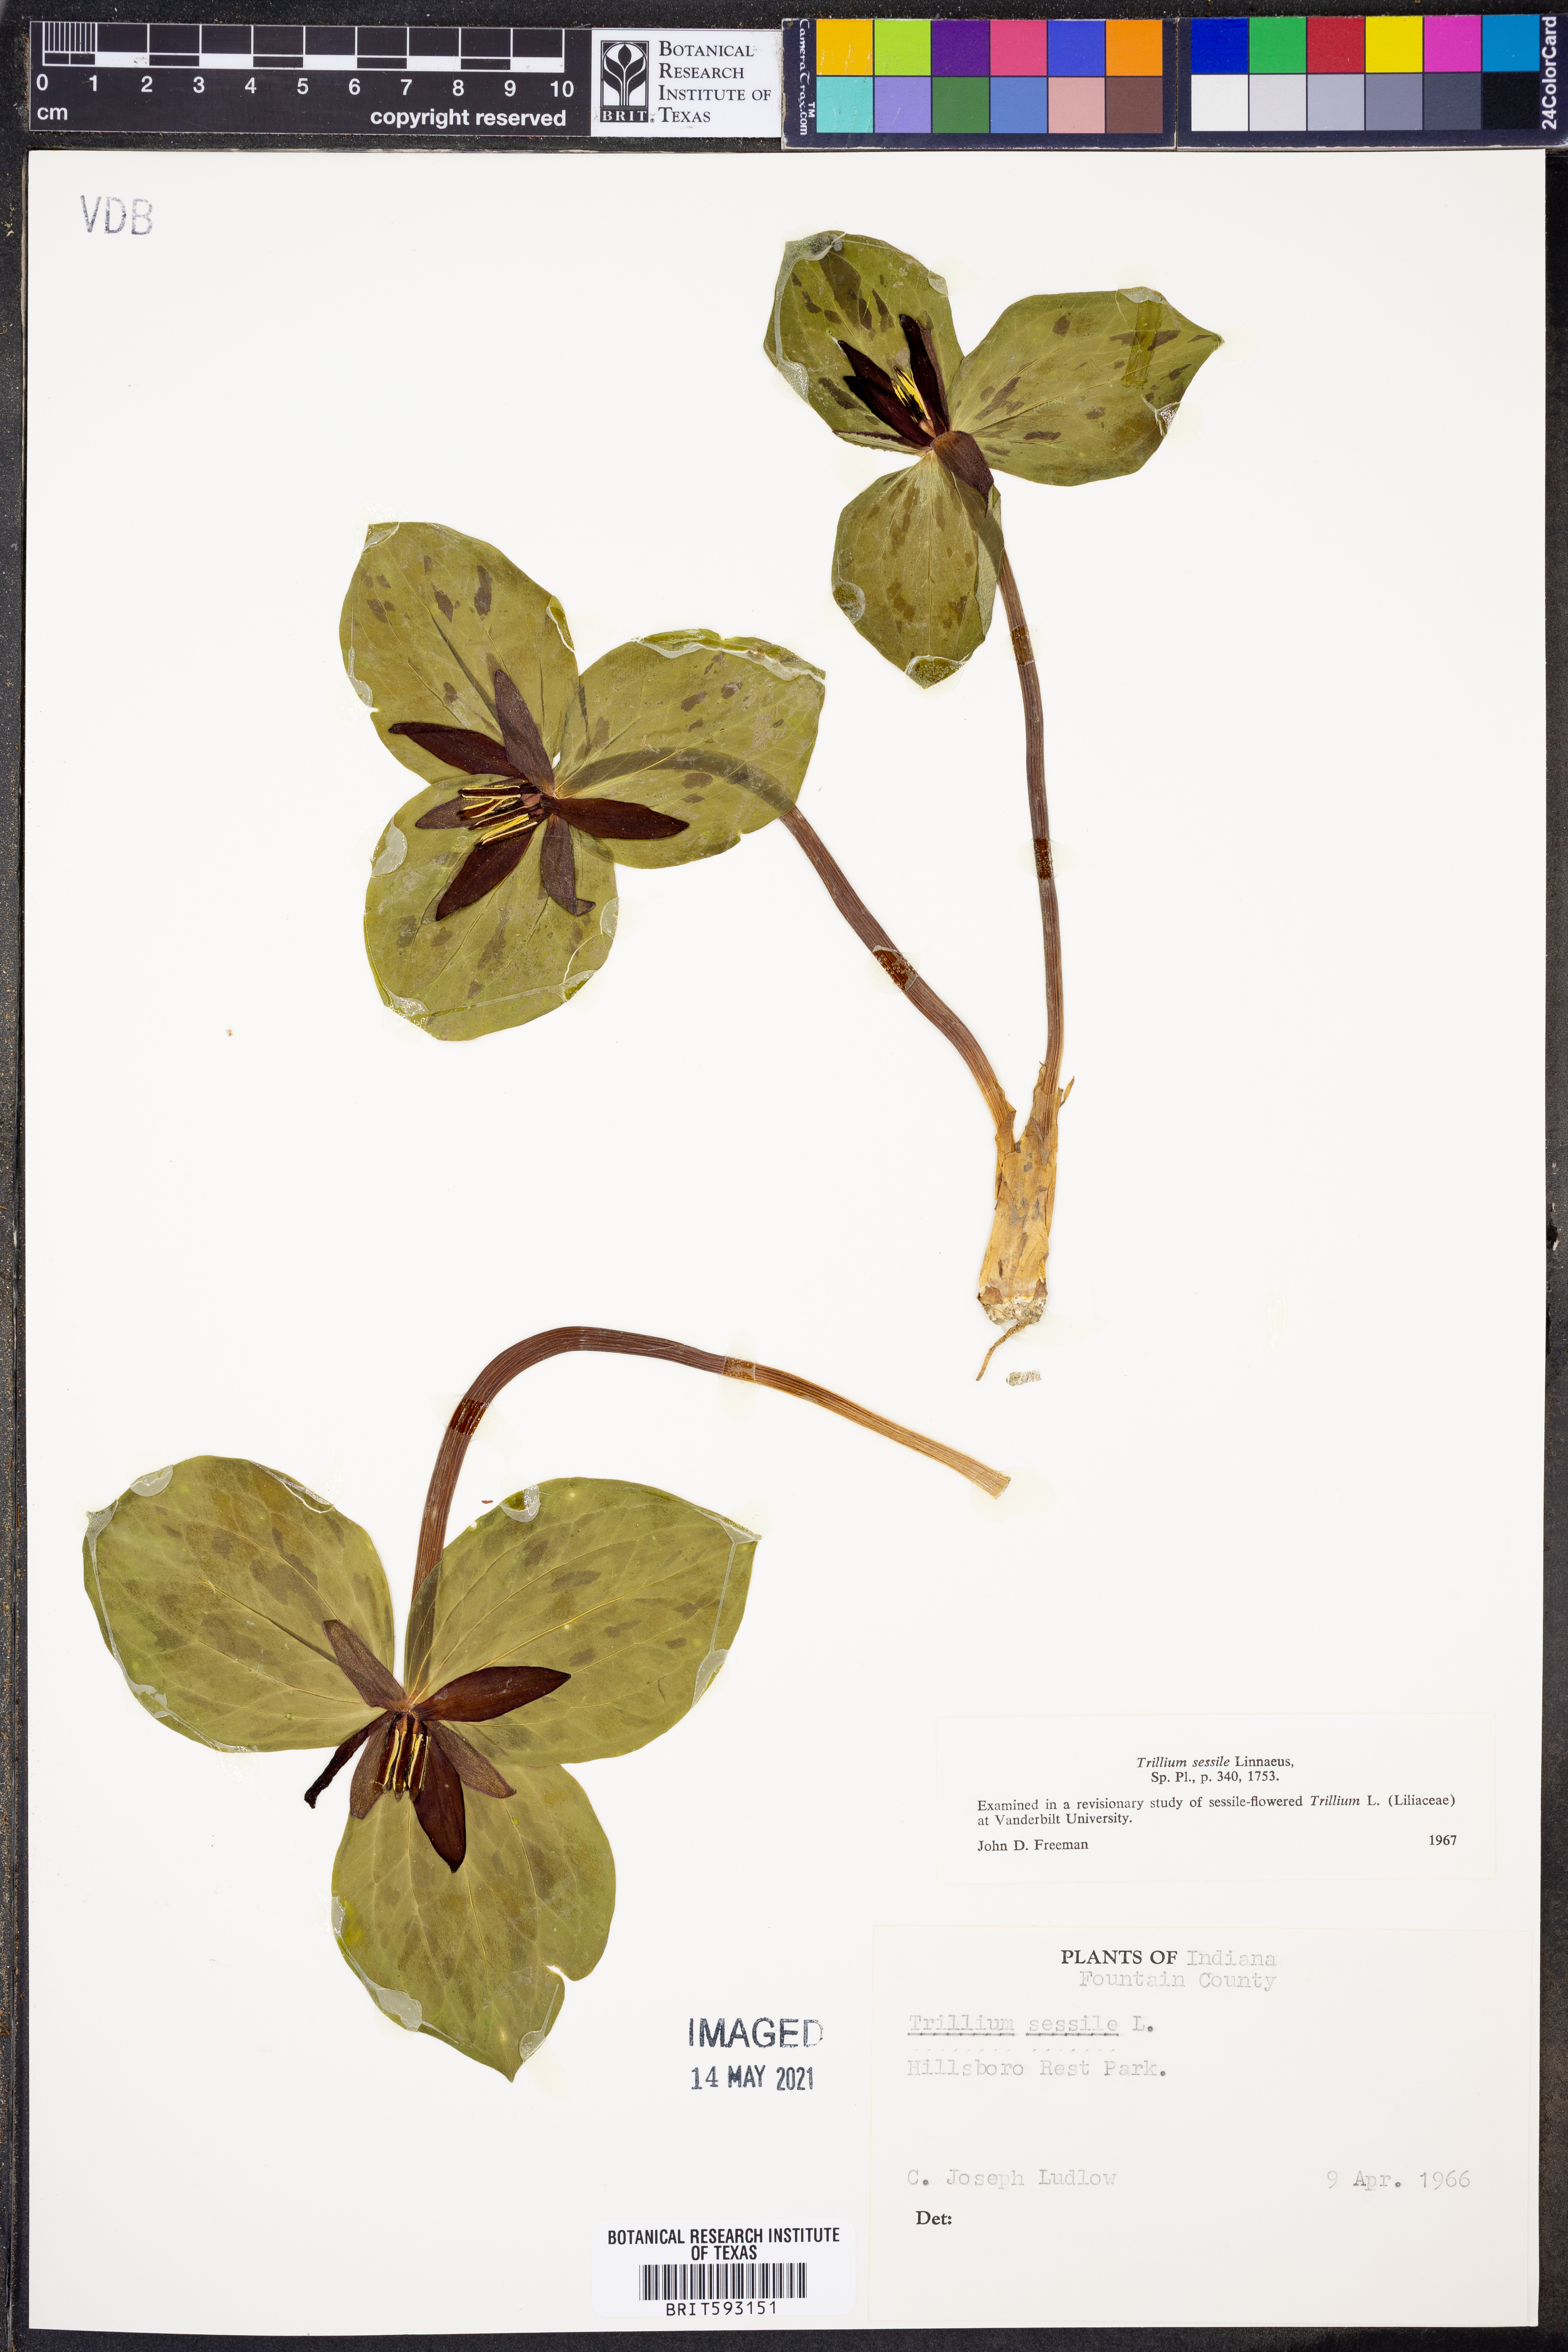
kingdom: Plantae
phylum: Tracheophyta
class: Liliopsida
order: Liliales
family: Melanthiaceae
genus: Trillium
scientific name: Trillium sessile
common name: Sessile trillium
